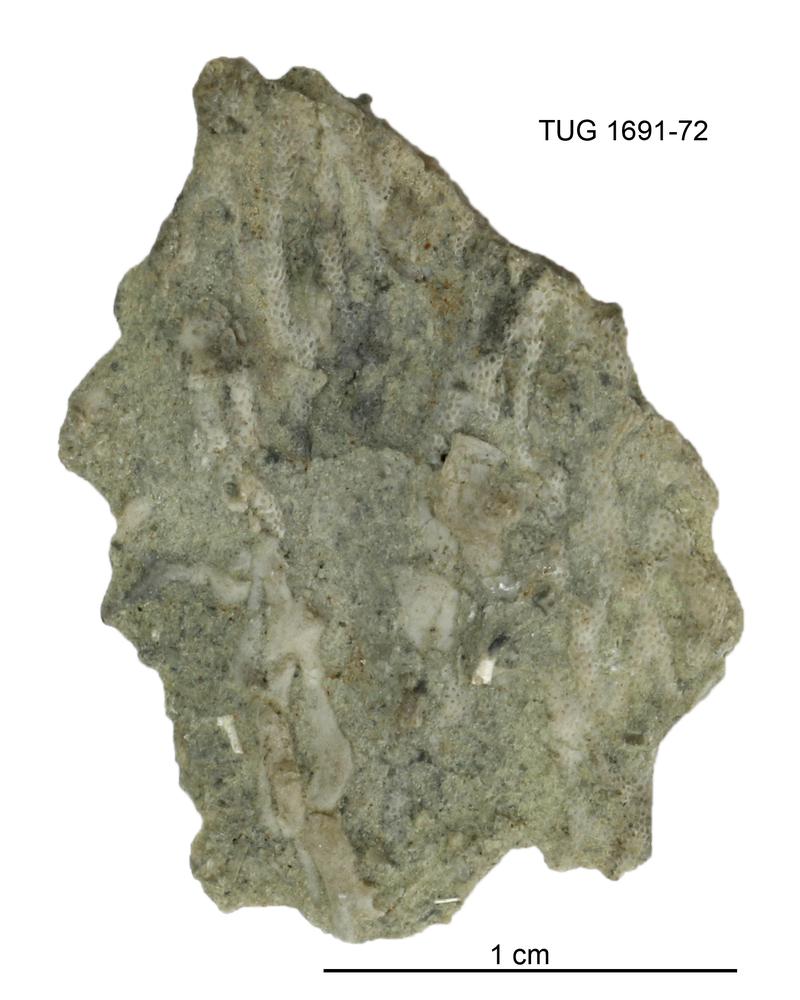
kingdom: Animalia
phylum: Bryozoa
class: Stenolaemata
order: Fenestrida
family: Phylloporinidae
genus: Aluverina
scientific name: Aluverina multiporata
